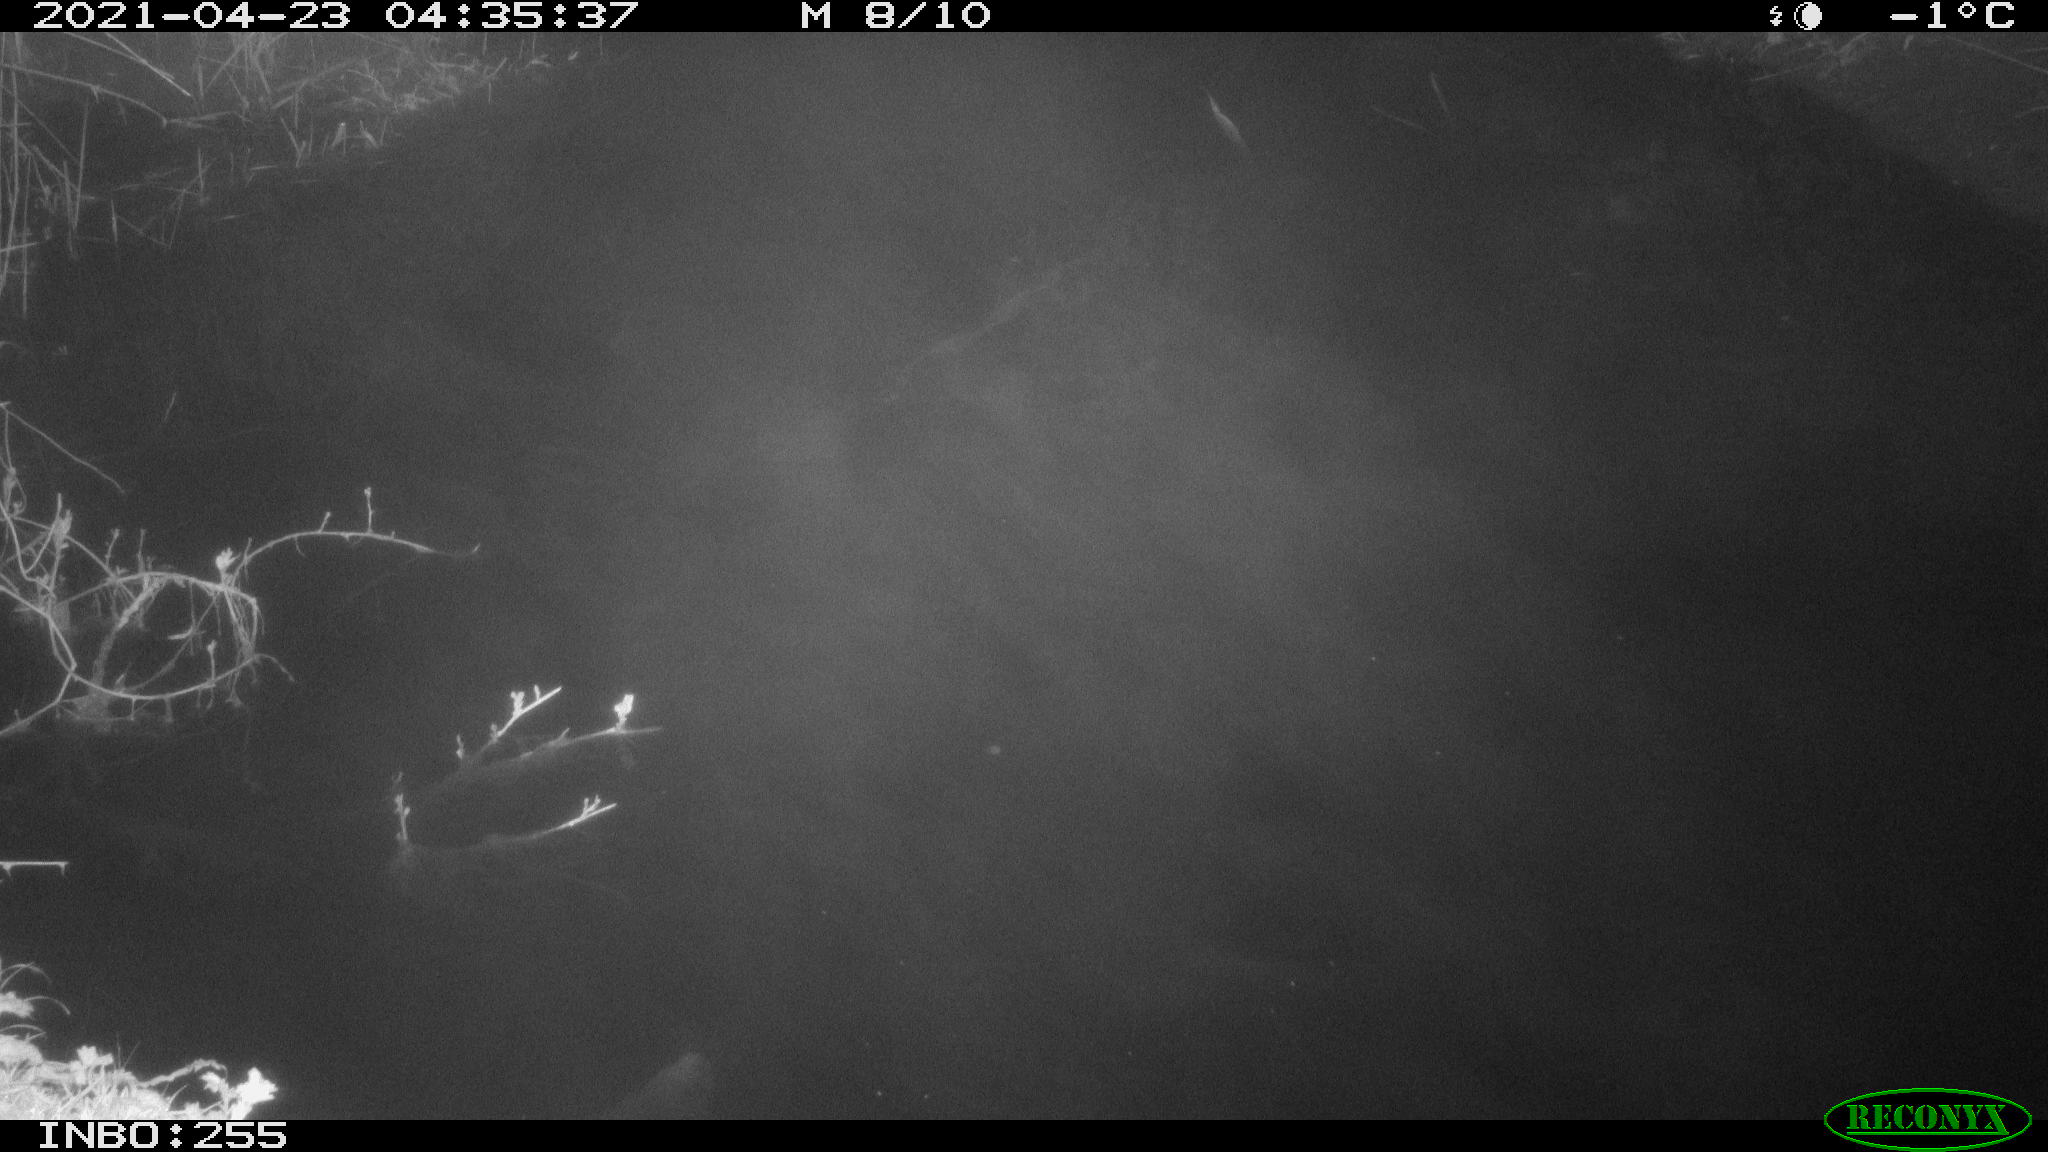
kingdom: Animalia
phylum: Chordata
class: Aves
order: Anseriformes
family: Anatidae
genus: Anas
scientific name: Anas platyrhynchos
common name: Mallard
